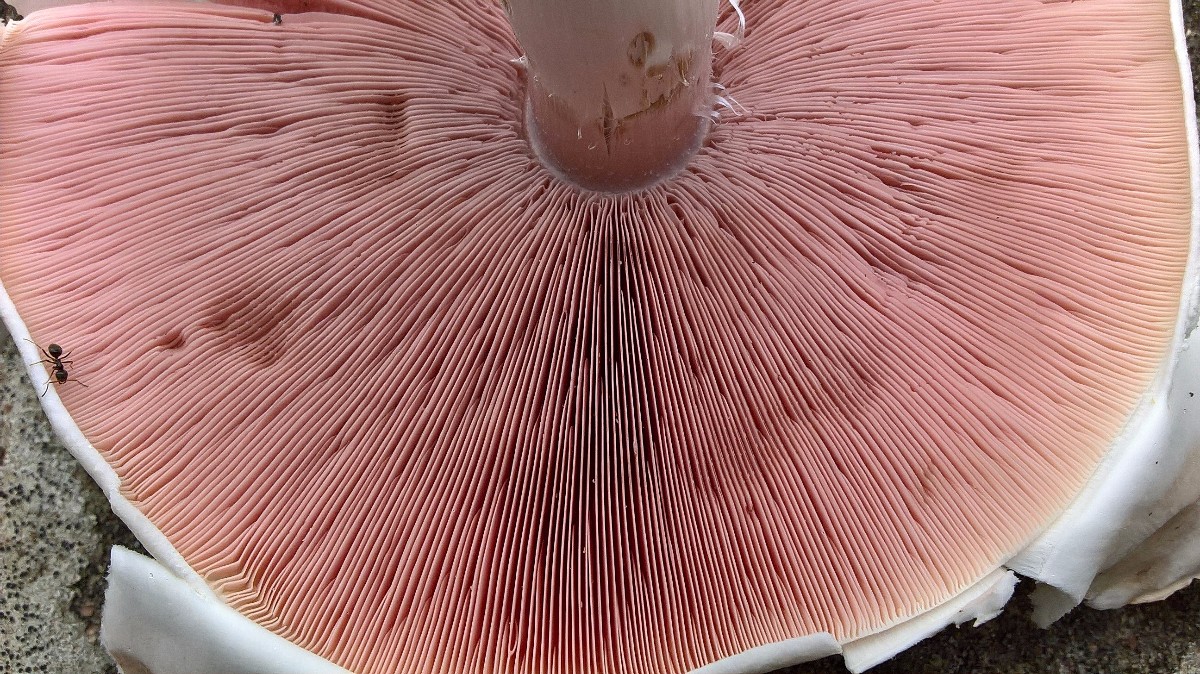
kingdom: Fungi
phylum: Basidiomycota
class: Agaricomycetes
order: Agaricales
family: Agaricaceae
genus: Agaricus
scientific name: Agaricus xanthodermus
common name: karbol-champignon
